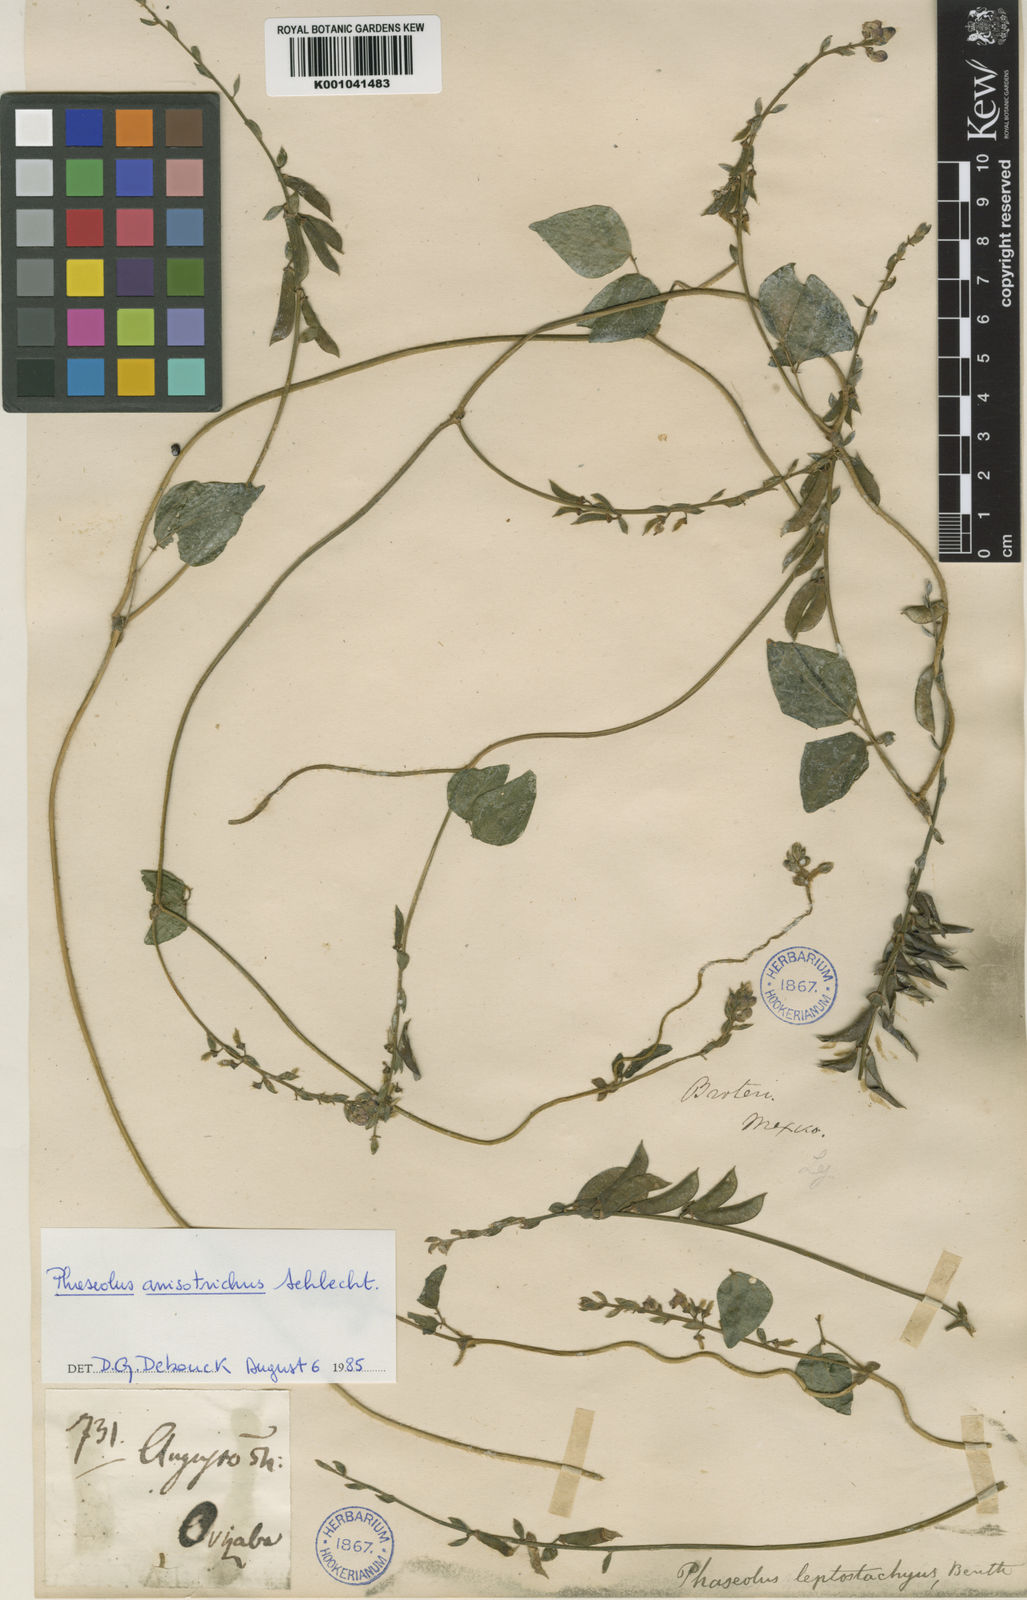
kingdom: Plantae
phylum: Tracheophyta
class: Magnoliopsida
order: Fabales
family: Fabaceae
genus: Phaseolus
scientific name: Phaseolus
